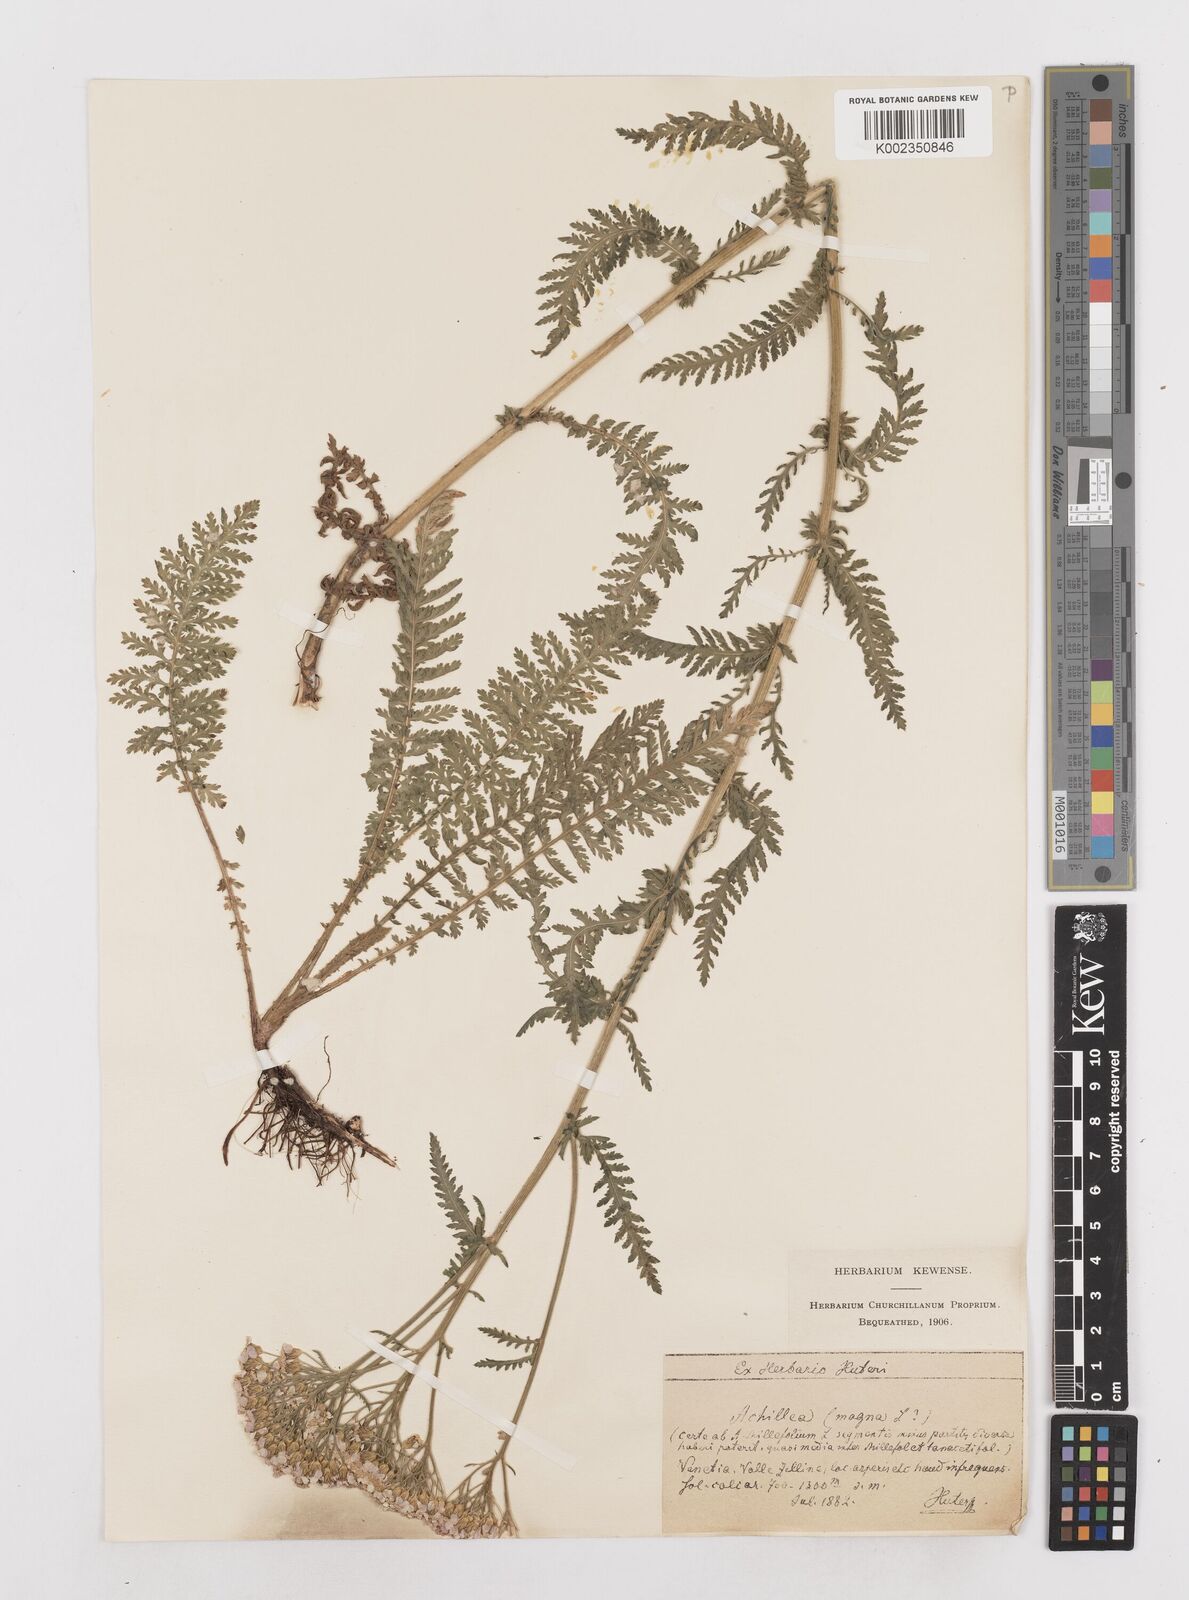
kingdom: Plantae
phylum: Tracheophyta
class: Magnoliopsida
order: Asterales
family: Asteraceae
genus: Achillea
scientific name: Achillea distans
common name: Tall yarrow
